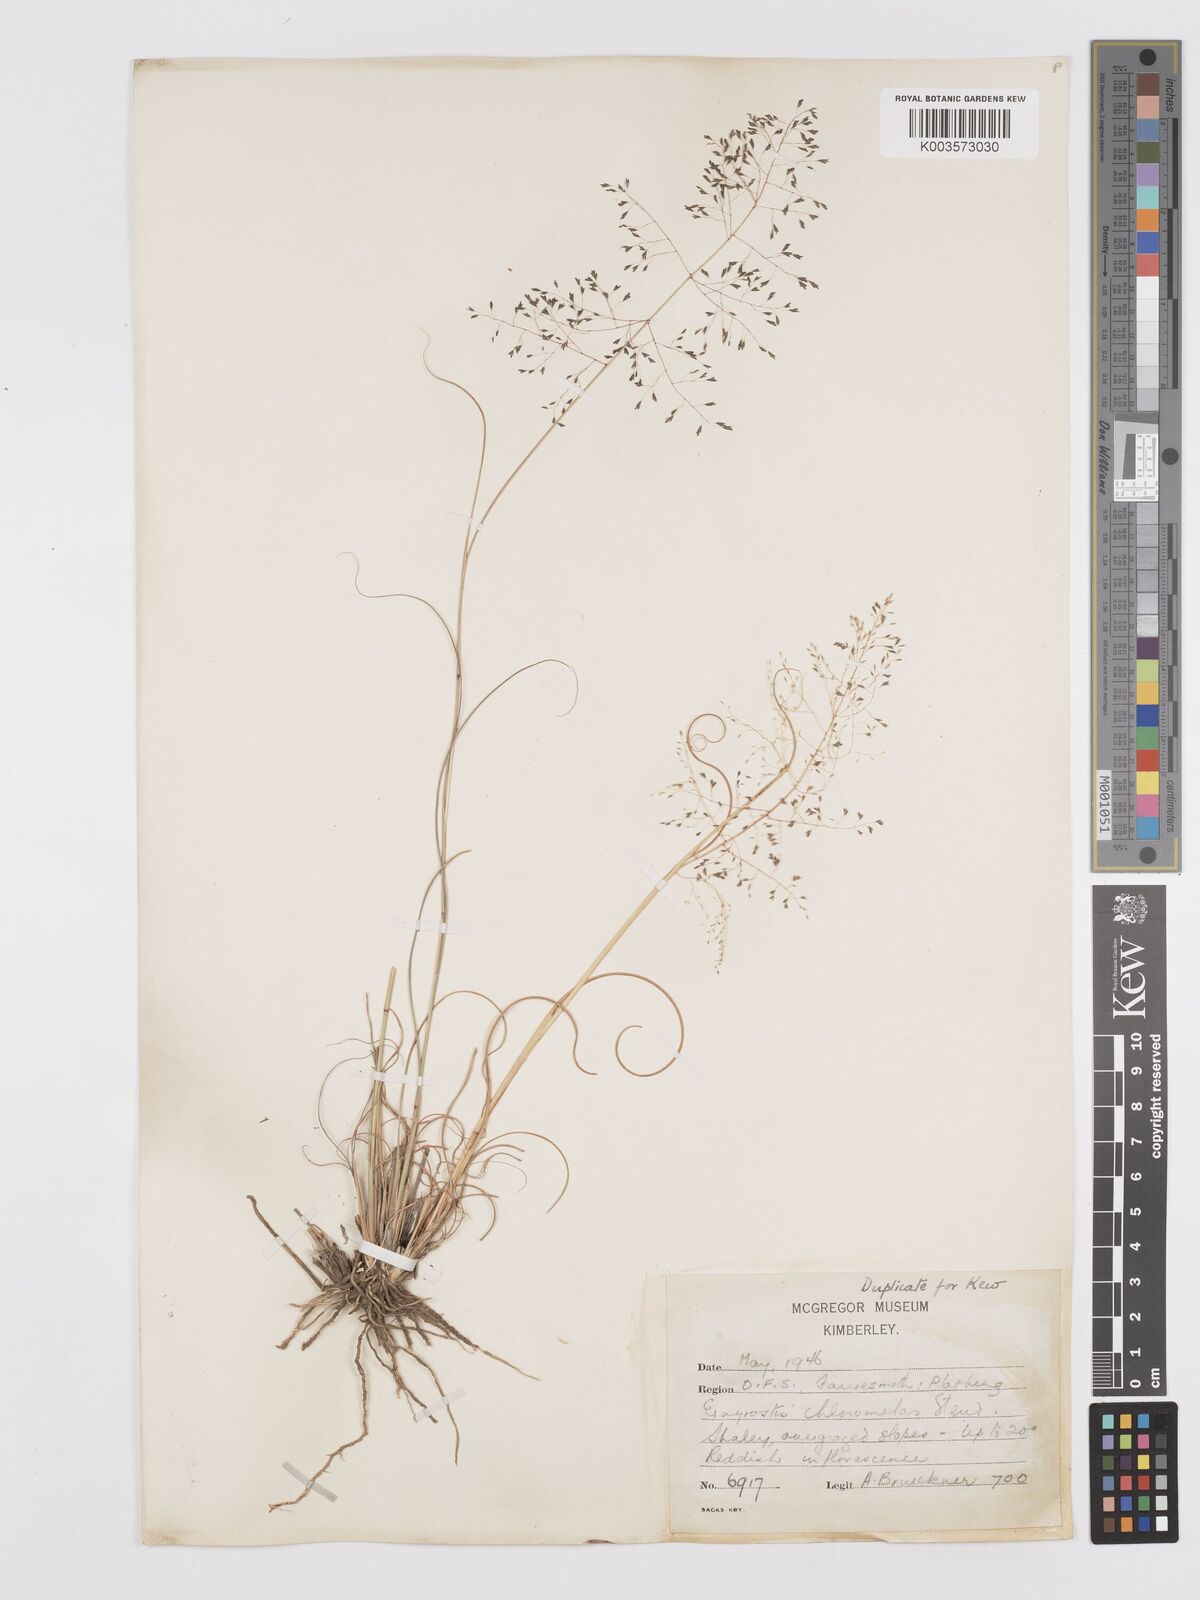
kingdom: Plantae
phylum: Tracheophyta
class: Liliopsida
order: Poales
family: Poaceae
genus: Eragrostis
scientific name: Eragrostis curvula
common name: African love-grass
